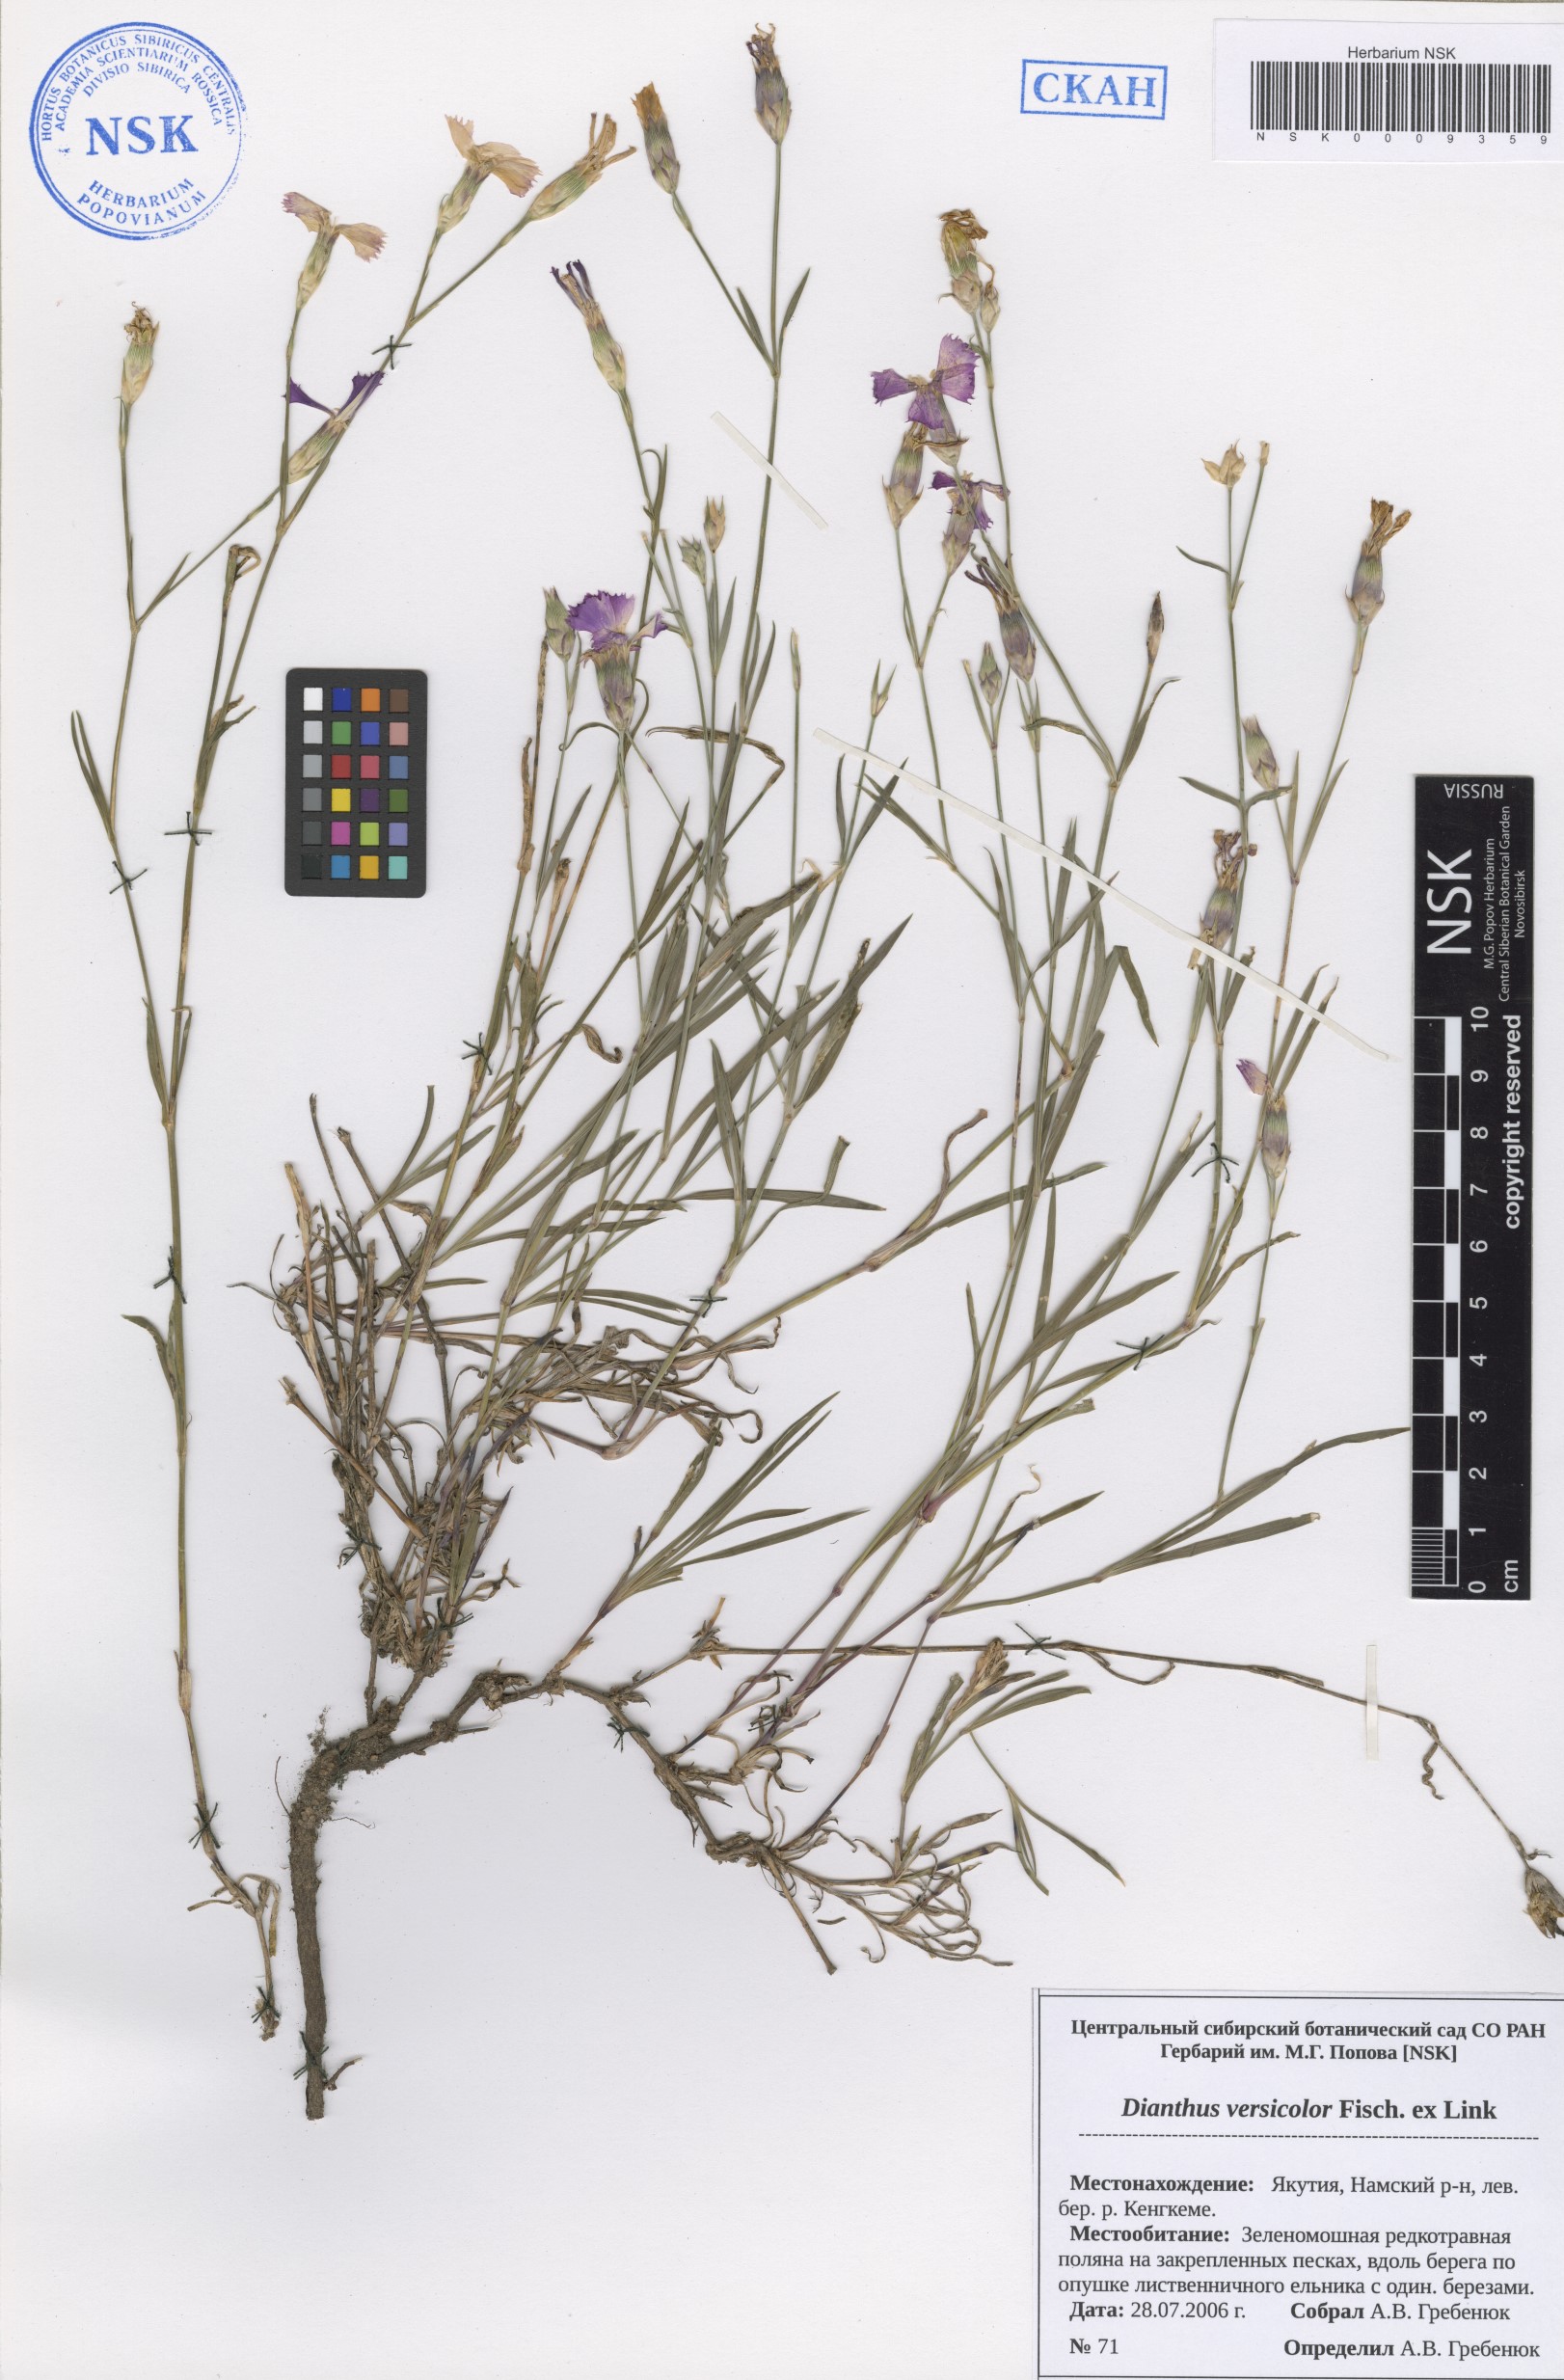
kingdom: Plantae
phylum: Tracheophyta
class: Magnoliopsida
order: Caryophyllales
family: Caryophyllaceae
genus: Dianthus
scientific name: Dianthus chinensis
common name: Rainbow pink
